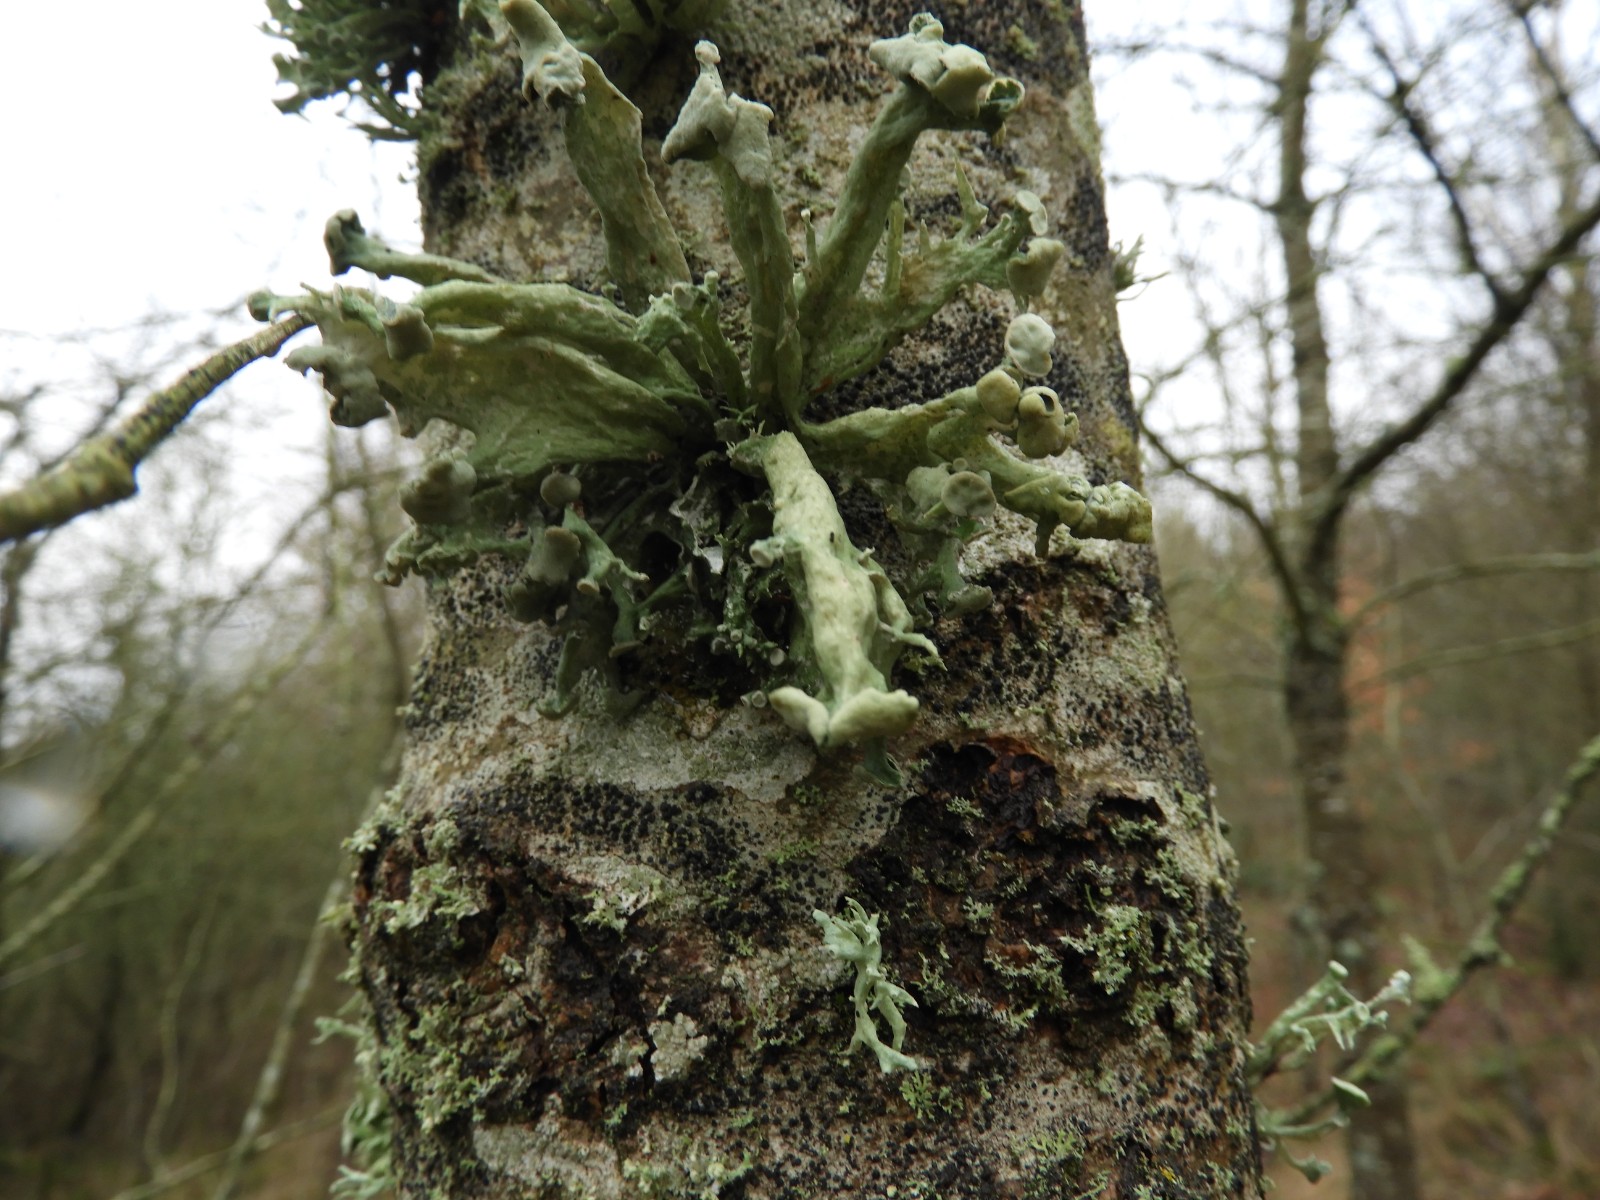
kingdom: Fungi
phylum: Ascomycota
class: Lecanoromycetes
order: Lecanorales
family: Ramalinaceae
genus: Ramalina
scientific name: Ramalina fastigiata
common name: tue-grenlav
